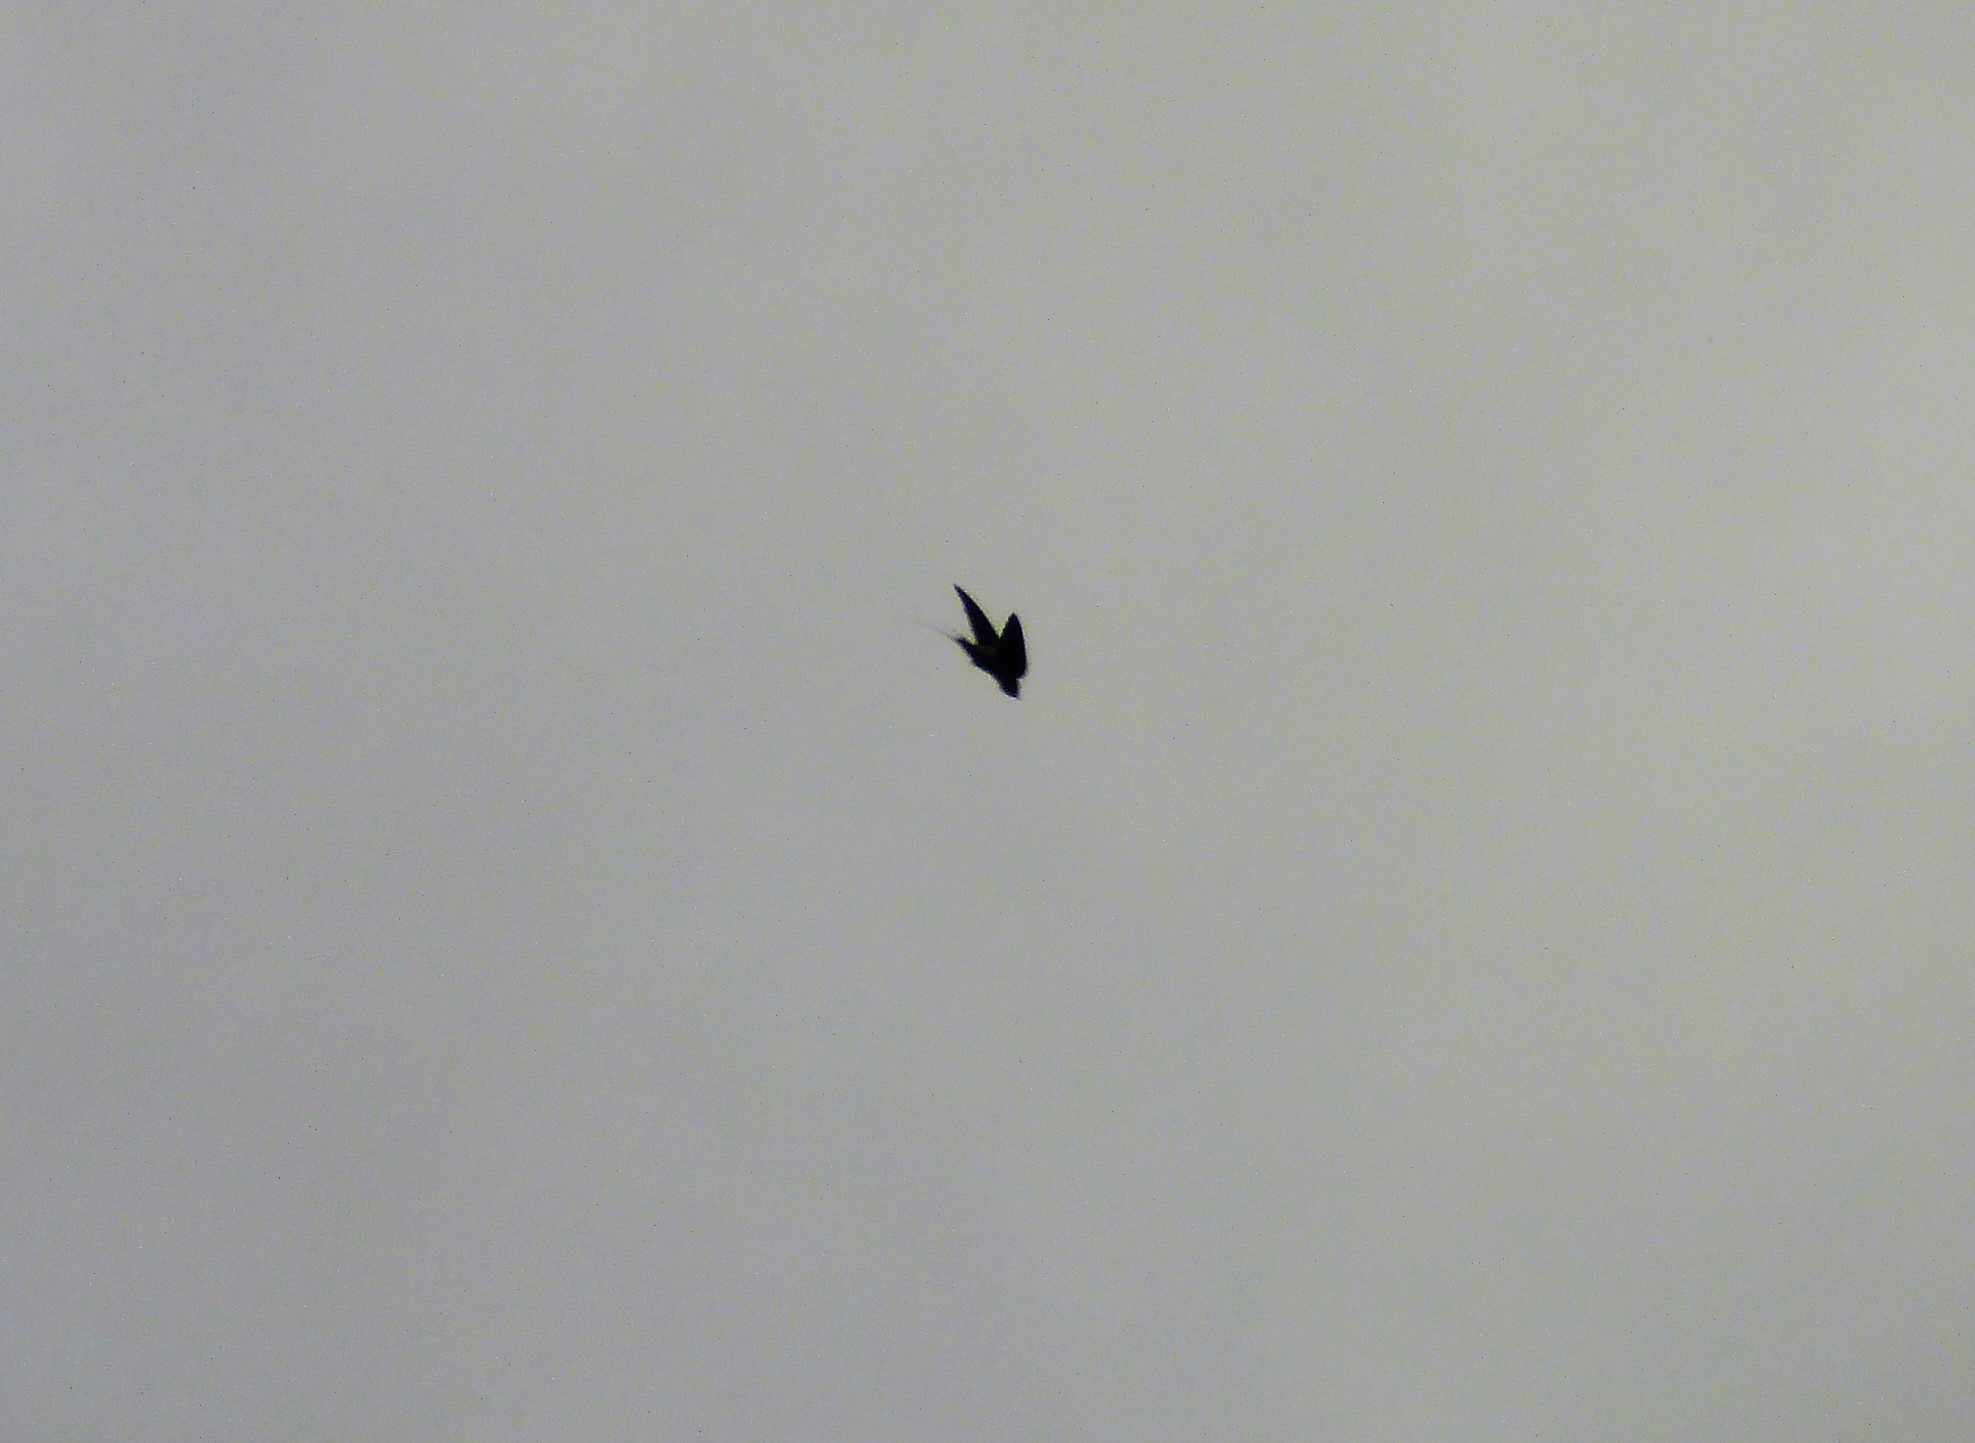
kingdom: Animalia
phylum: Chordata
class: Aves
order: Passeriformes
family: Hirundinidae
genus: Hirundo
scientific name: Hirundo rustica
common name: Landsvale
